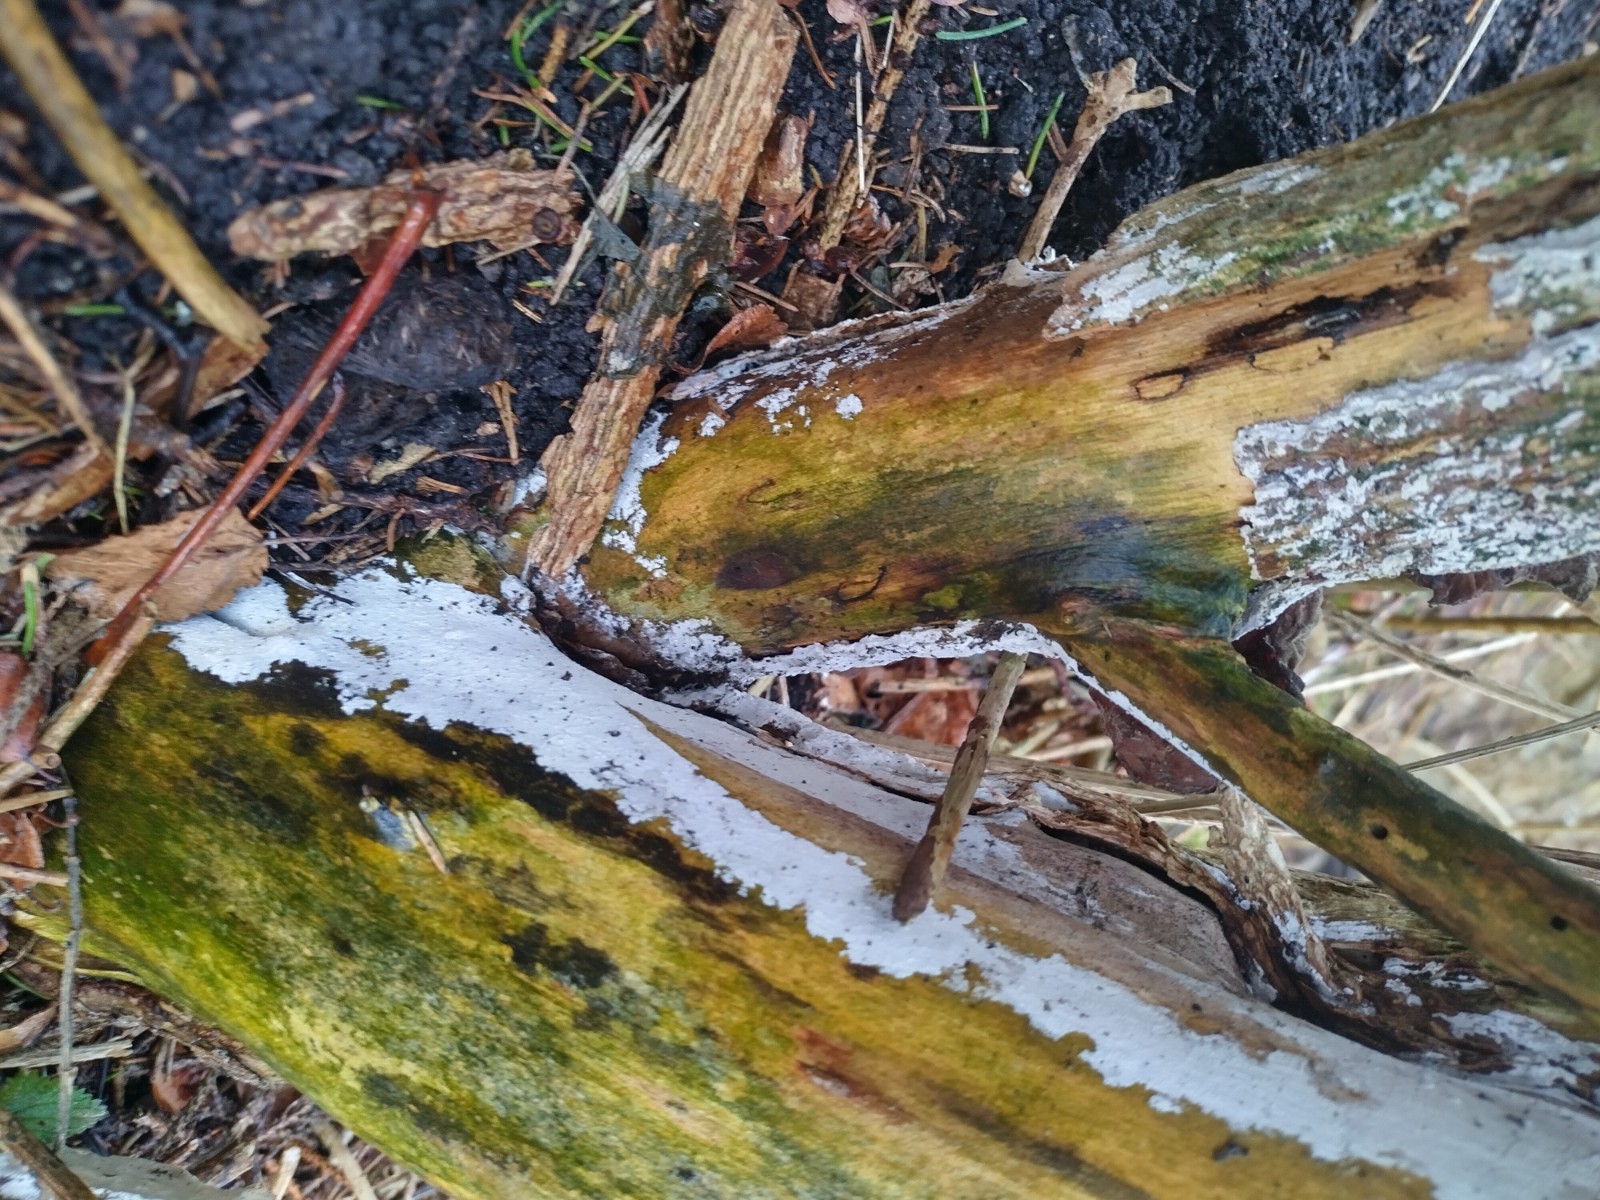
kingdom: Fungi
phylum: Basidiomycota
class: Agaricomycetes
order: Corticiales
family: Corticiaceae
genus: Lyomyces
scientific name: Lyomyces sambuci
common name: almindelig hyldehinde
